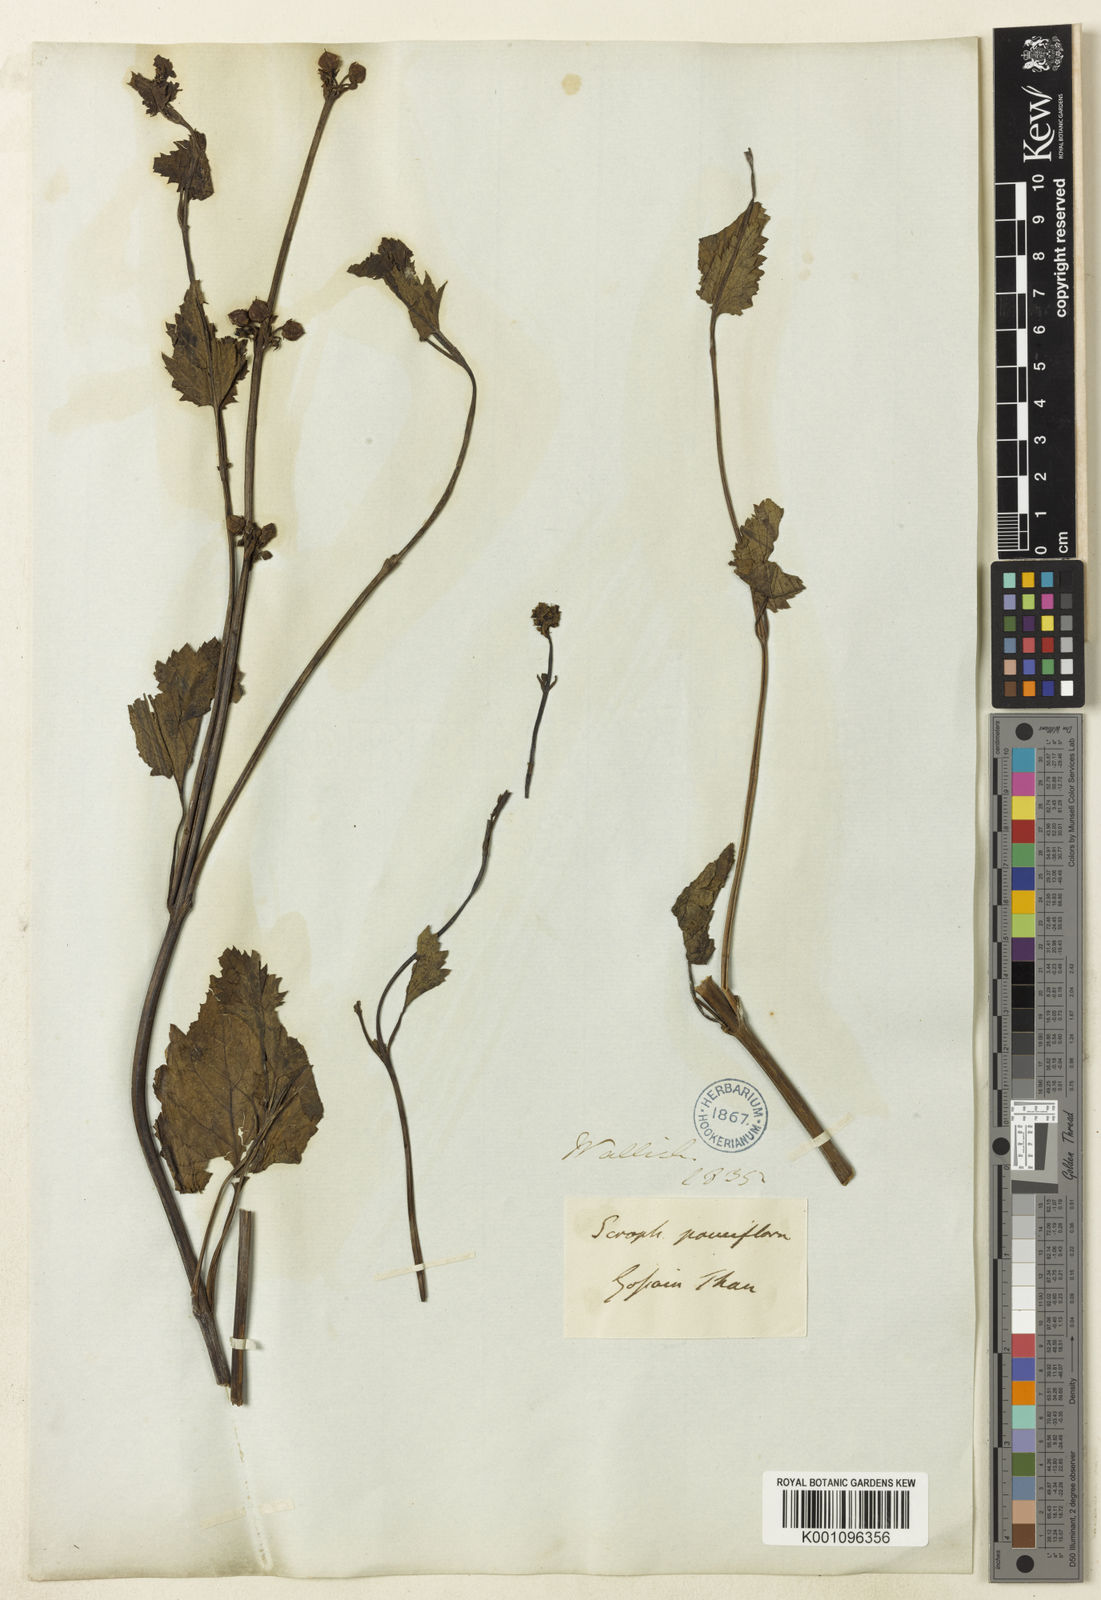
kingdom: Plantae
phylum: Tracheophyta
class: Magnoliopsida
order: Lamiales
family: Scrophulariaceae
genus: Scrophularia
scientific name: Scrophularia pauciflora
